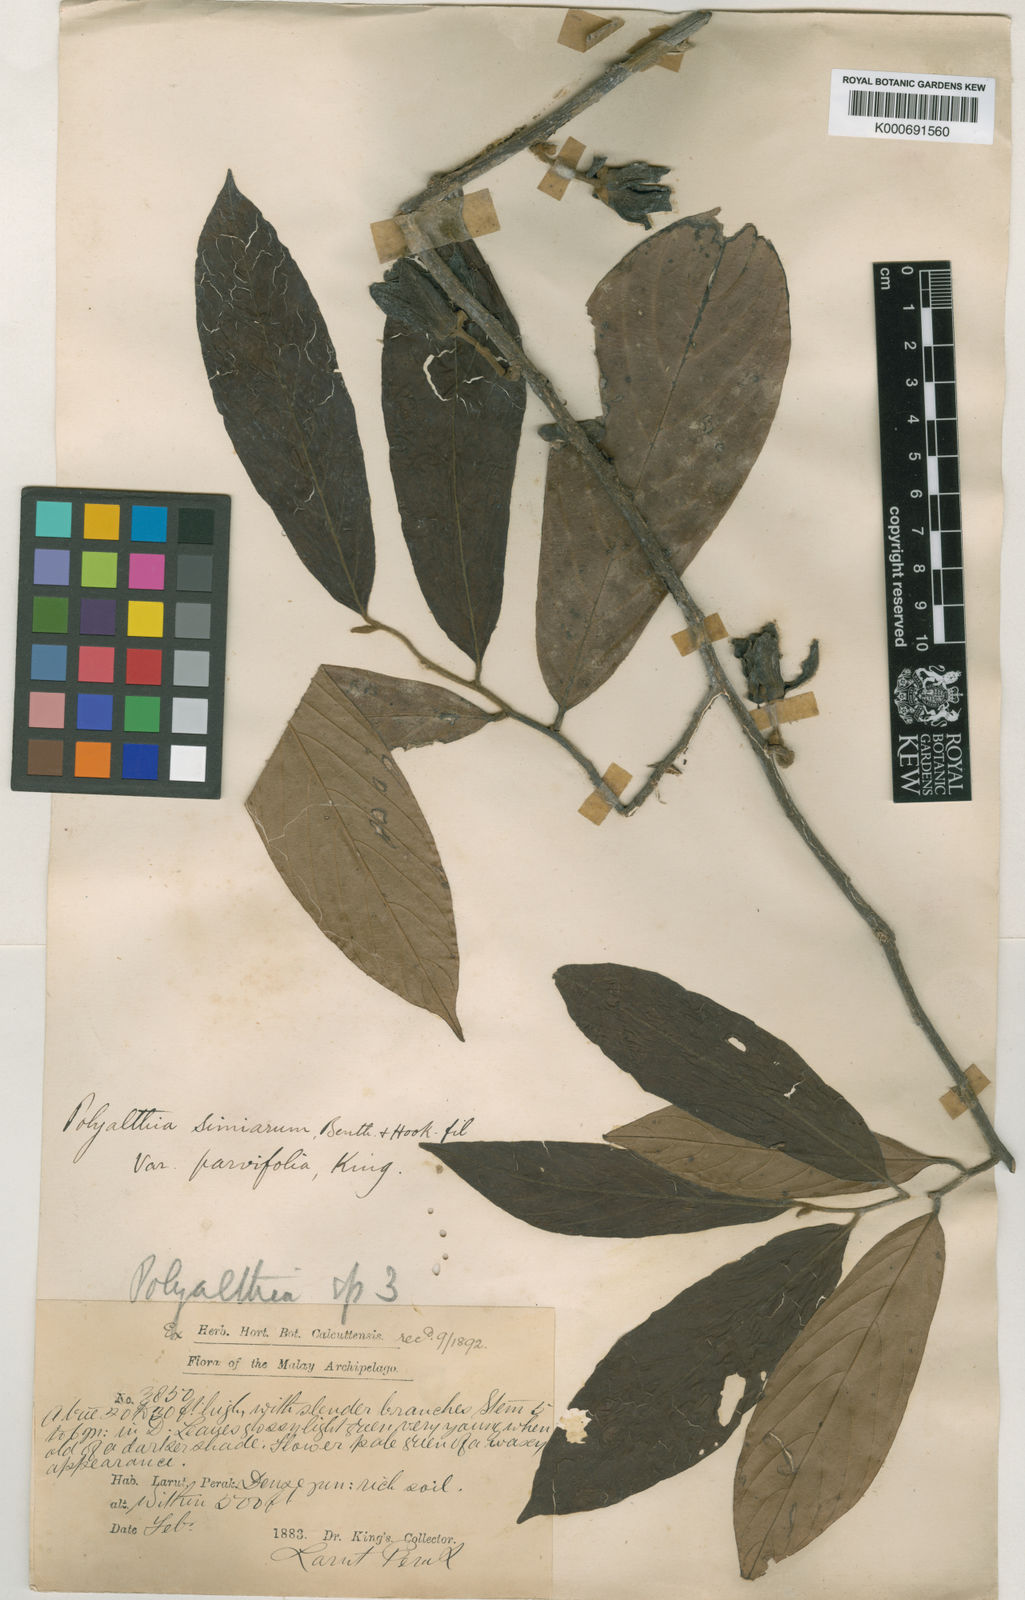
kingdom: Plantae
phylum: Tracheophyta
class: Magnoliopsida
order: Magnoliales
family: Annonaceae
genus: Polyalthia
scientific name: Polyalthia hookeriana
